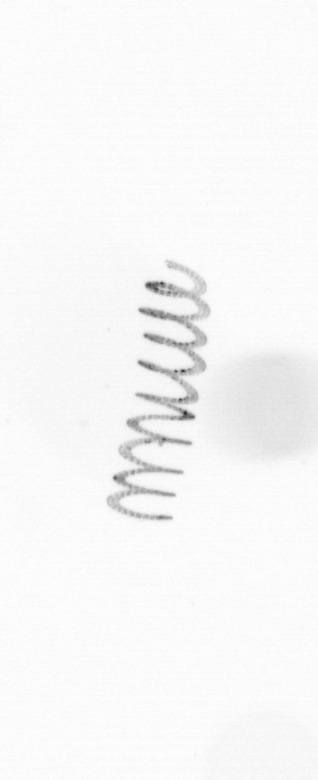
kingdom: Chromista
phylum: Ochrophyta
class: Bacillariophyceae
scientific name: Bacillariophyceae
